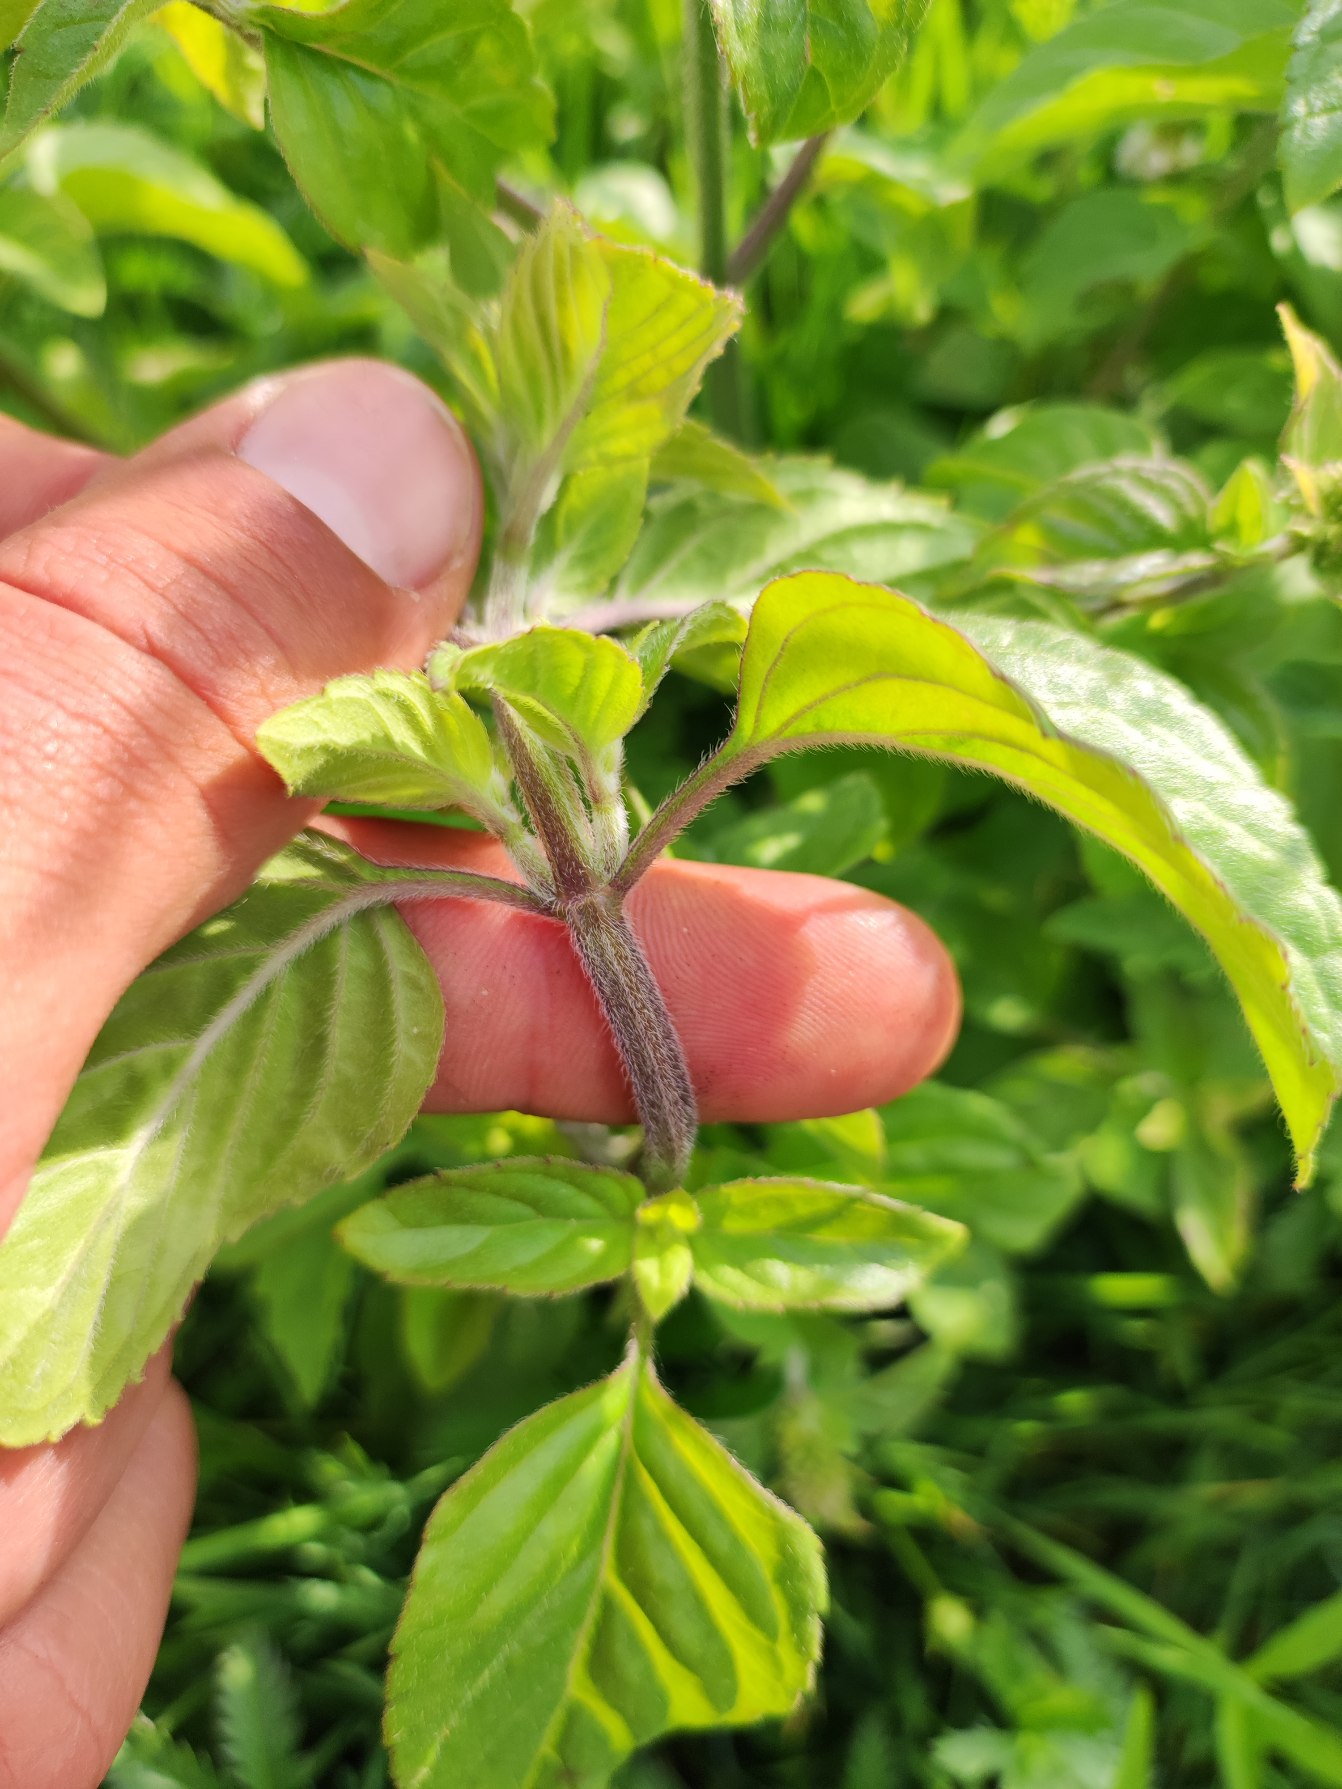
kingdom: Plantae
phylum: Tracheophyta
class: Magnoliopsida
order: Lamiales
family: Lamiaceae
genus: Mentha
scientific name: Mentha aquatica
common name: Vand-mynte
